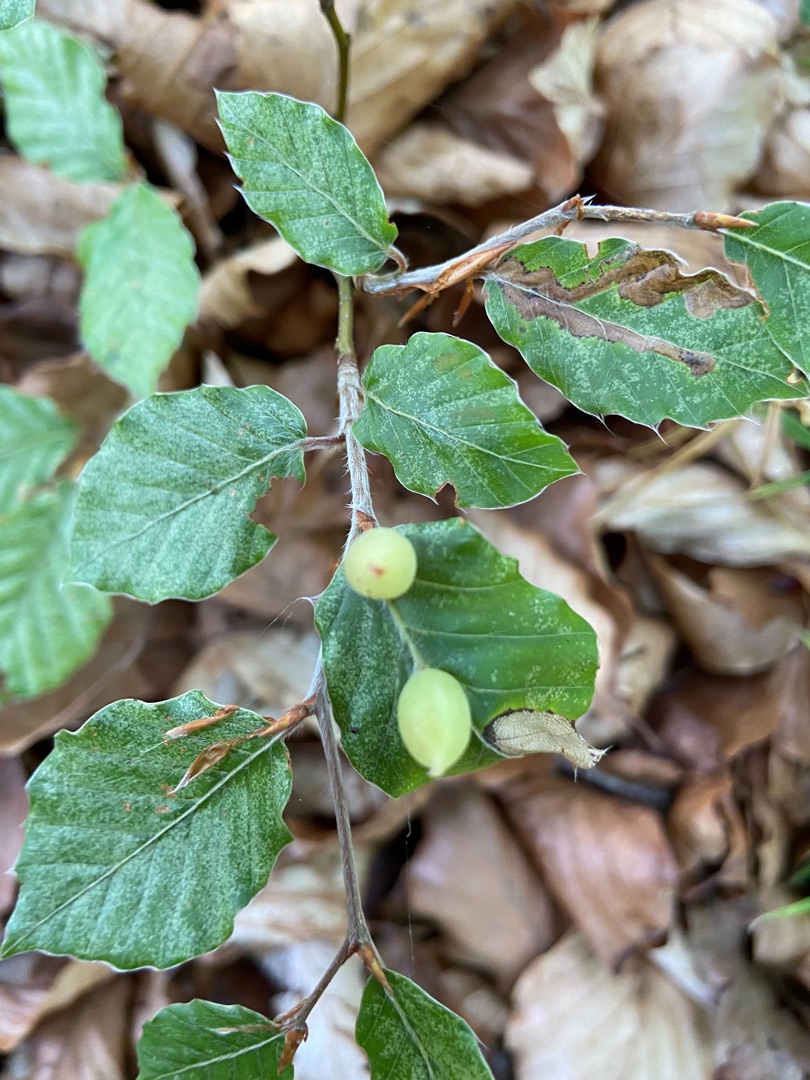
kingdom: Animalia
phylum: Arthropoda
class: Insecta
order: Diptera
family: Cecidomyiidae
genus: Mikiola
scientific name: Mikiola fagi
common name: Bøgegalmyg
